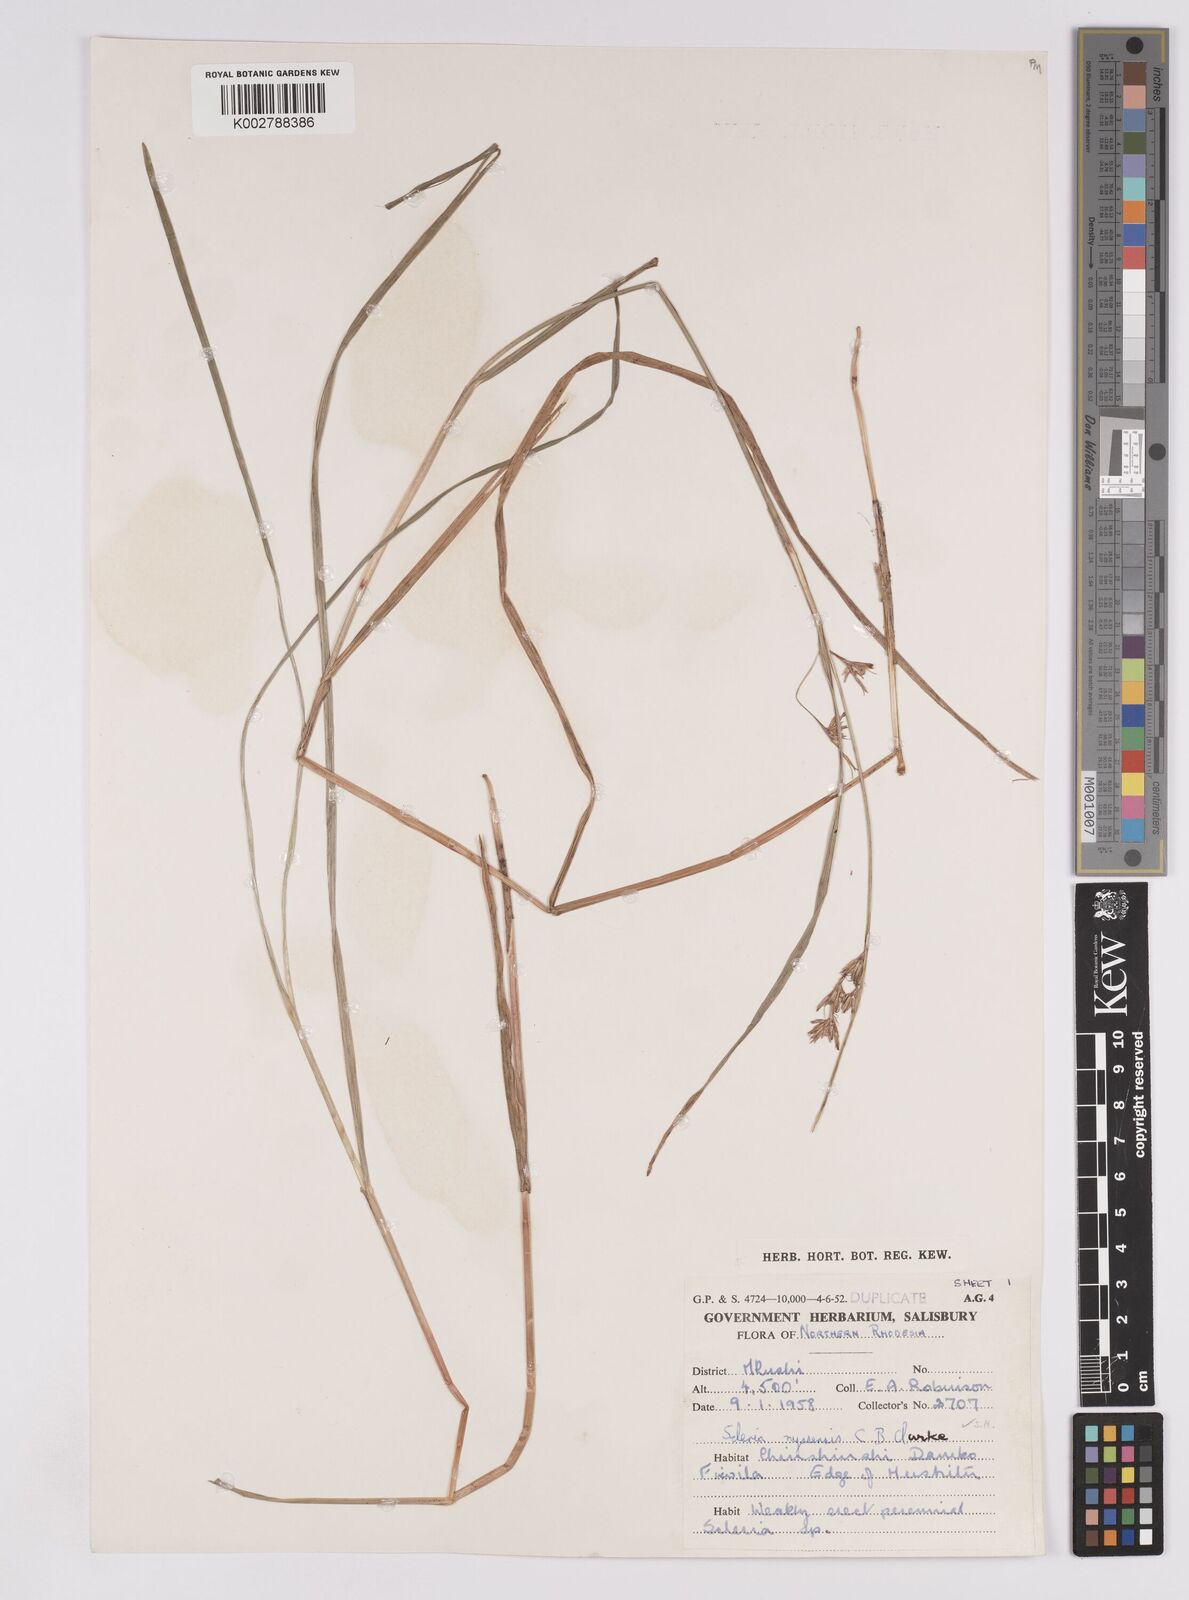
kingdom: Plantae
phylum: Tracheophyta
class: Liliopsida
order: Poales
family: Cyperaceae
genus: Scleria
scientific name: Scleria nyasensis
